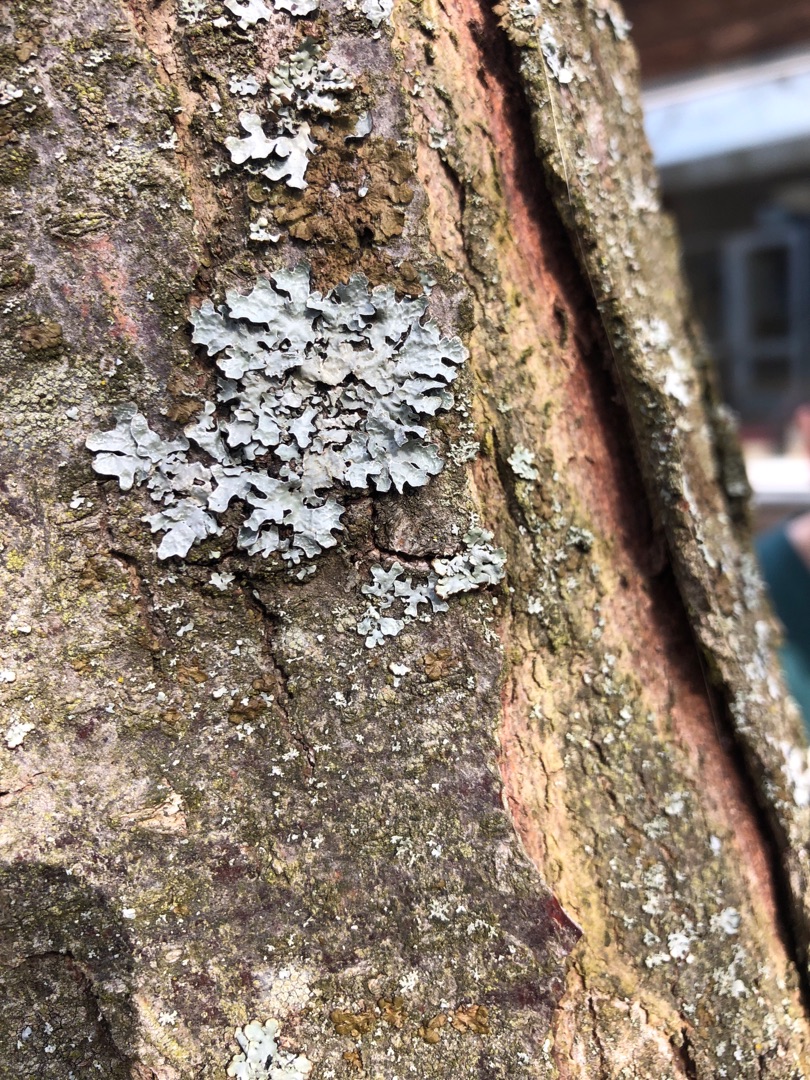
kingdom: Fungi
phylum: Ascomycota
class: Lecanoromycetes
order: Lecanorales
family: Parmeliaceae
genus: Parmelia
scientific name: Parmelia sulcata
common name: Rynket skållav
